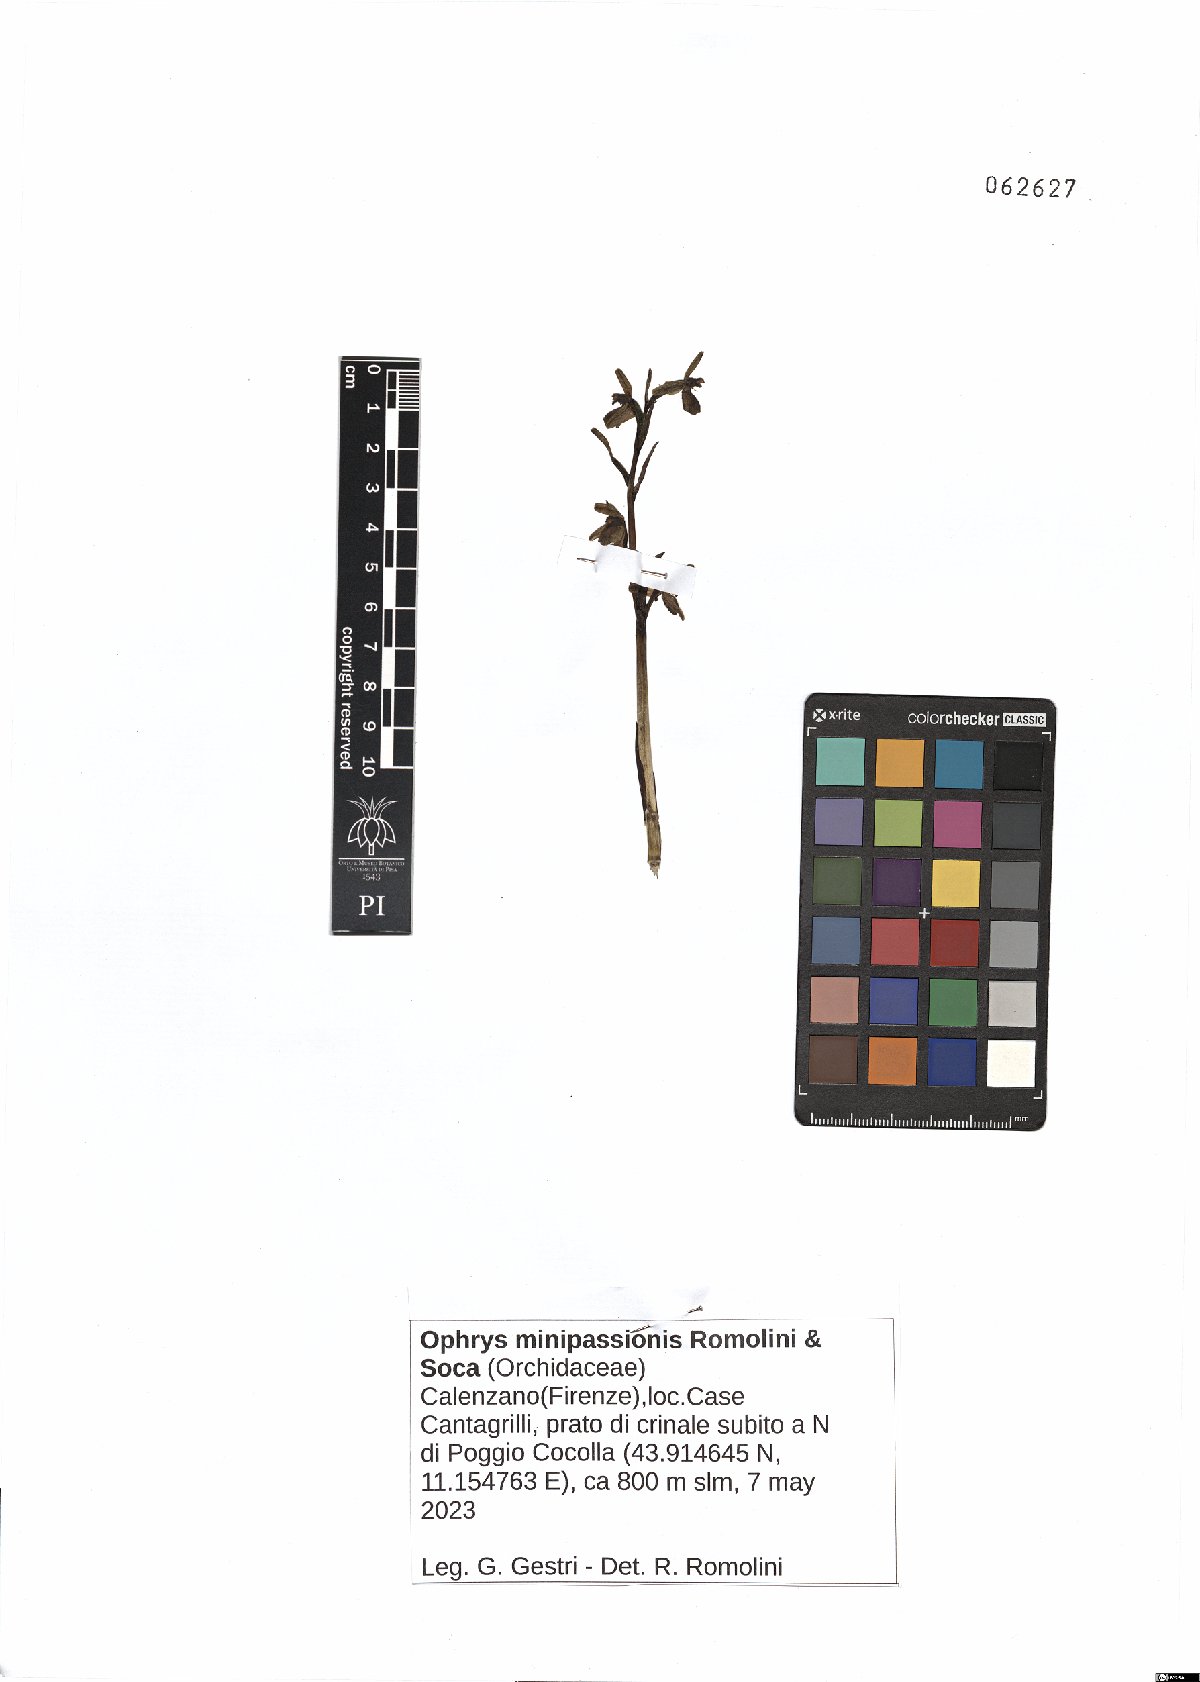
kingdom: Plantae
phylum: Tracheophyta
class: Liliopsida
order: Asparagales
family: Orchidaceae
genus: Ophrys
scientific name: Ophrys sphegodes
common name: Early spider-orchid
